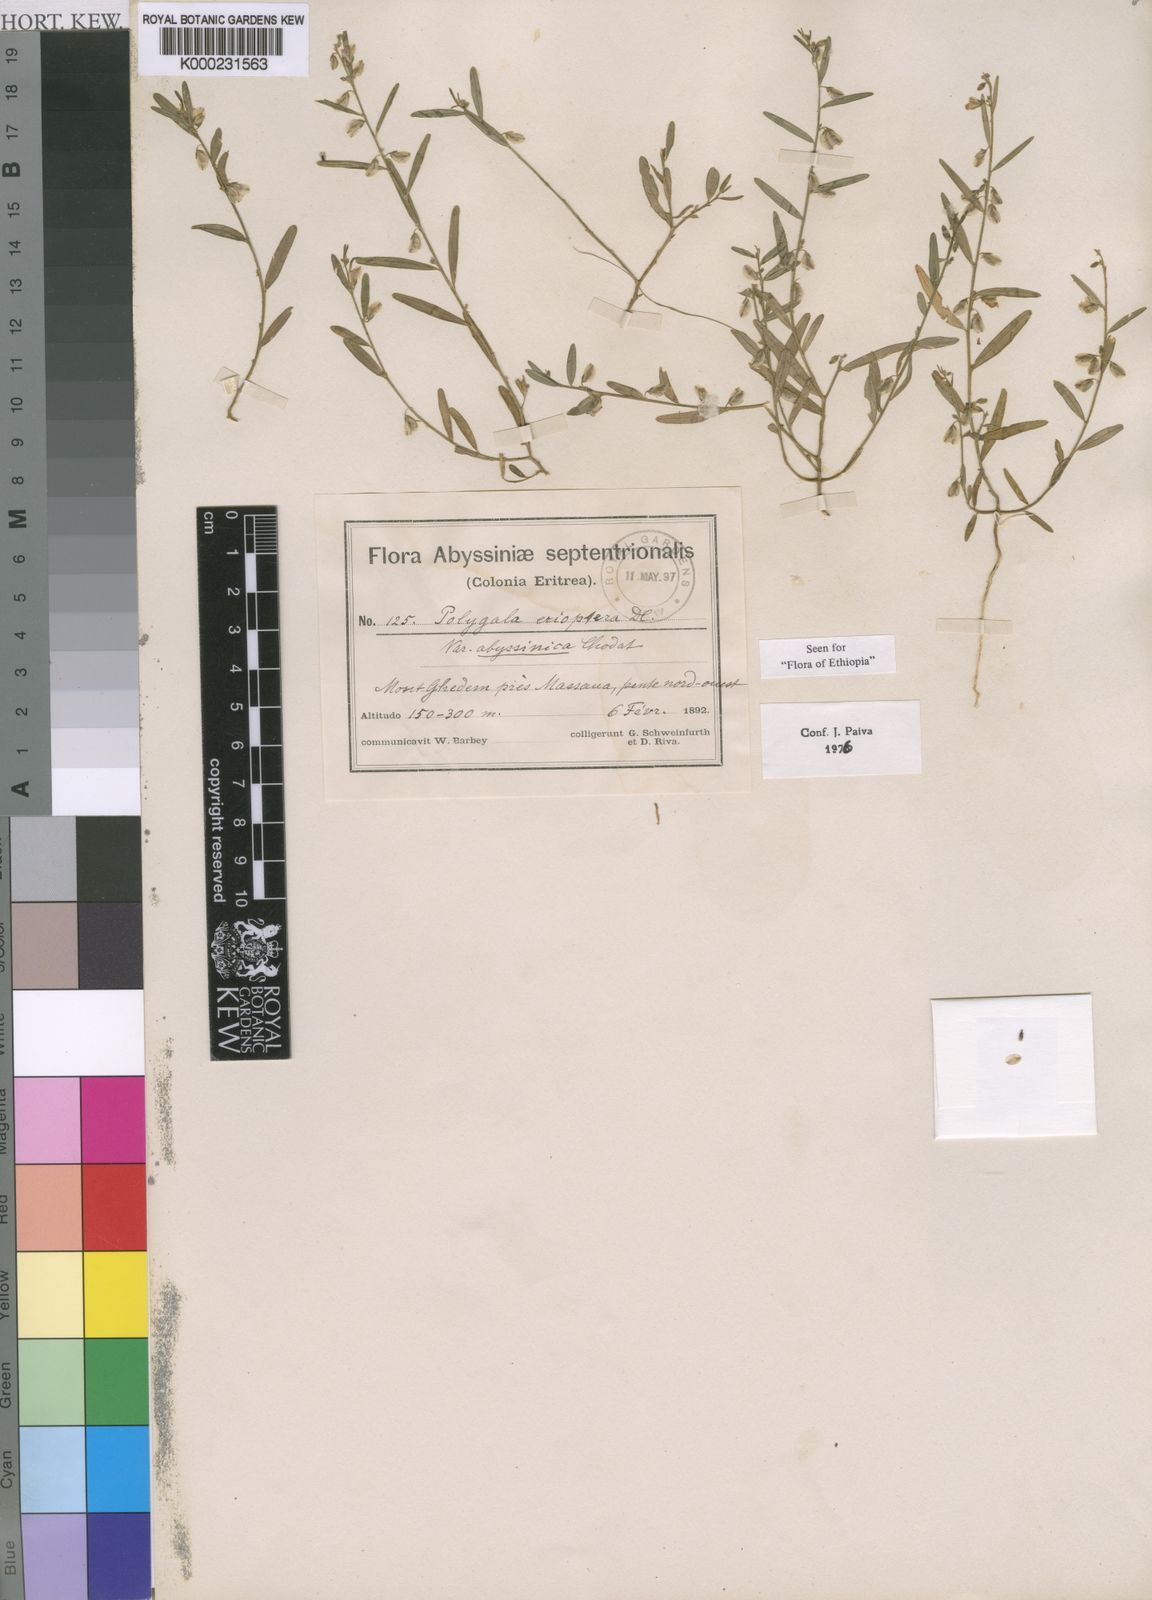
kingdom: Plantae
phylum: Tracheophyta
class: Magnoliopsida
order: Fabales
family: Polygalaceae
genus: Polygala
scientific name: Polygala erioptera
